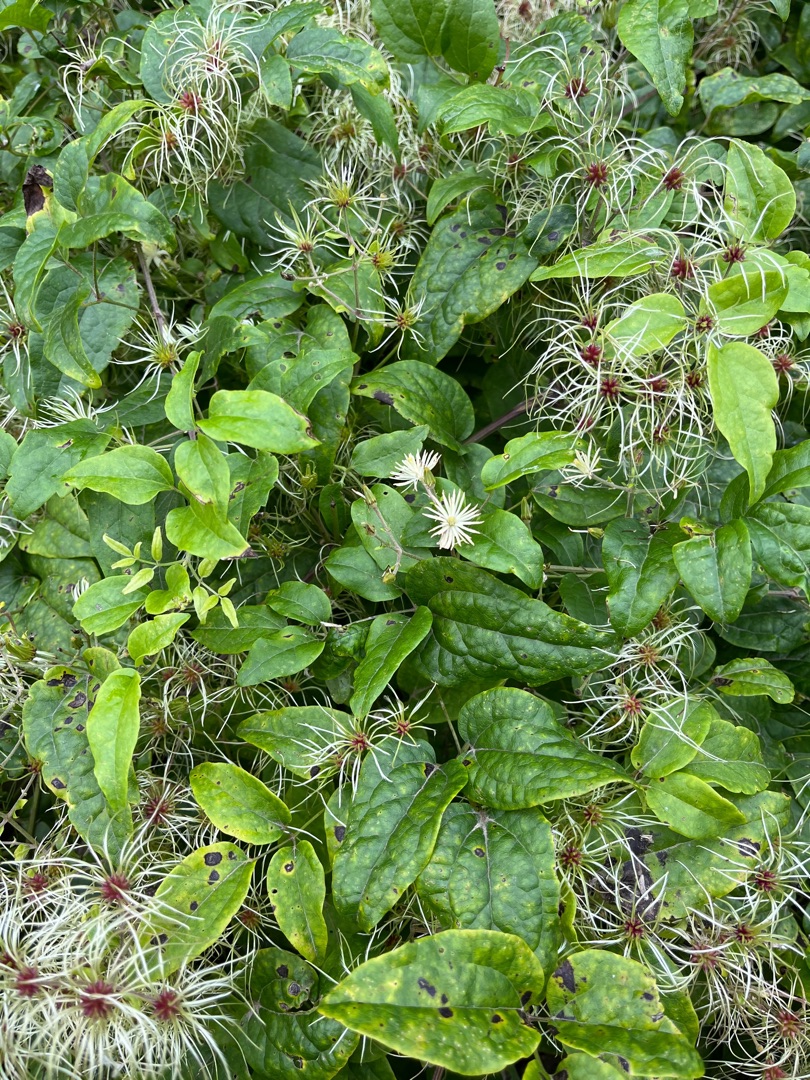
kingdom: Plantae
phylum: Tracheophyta
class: Magnoliopsida
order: Ranunculales
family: Ranunculaceae
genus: Clematis
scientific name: Clematis vitalba
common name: Skovranke
